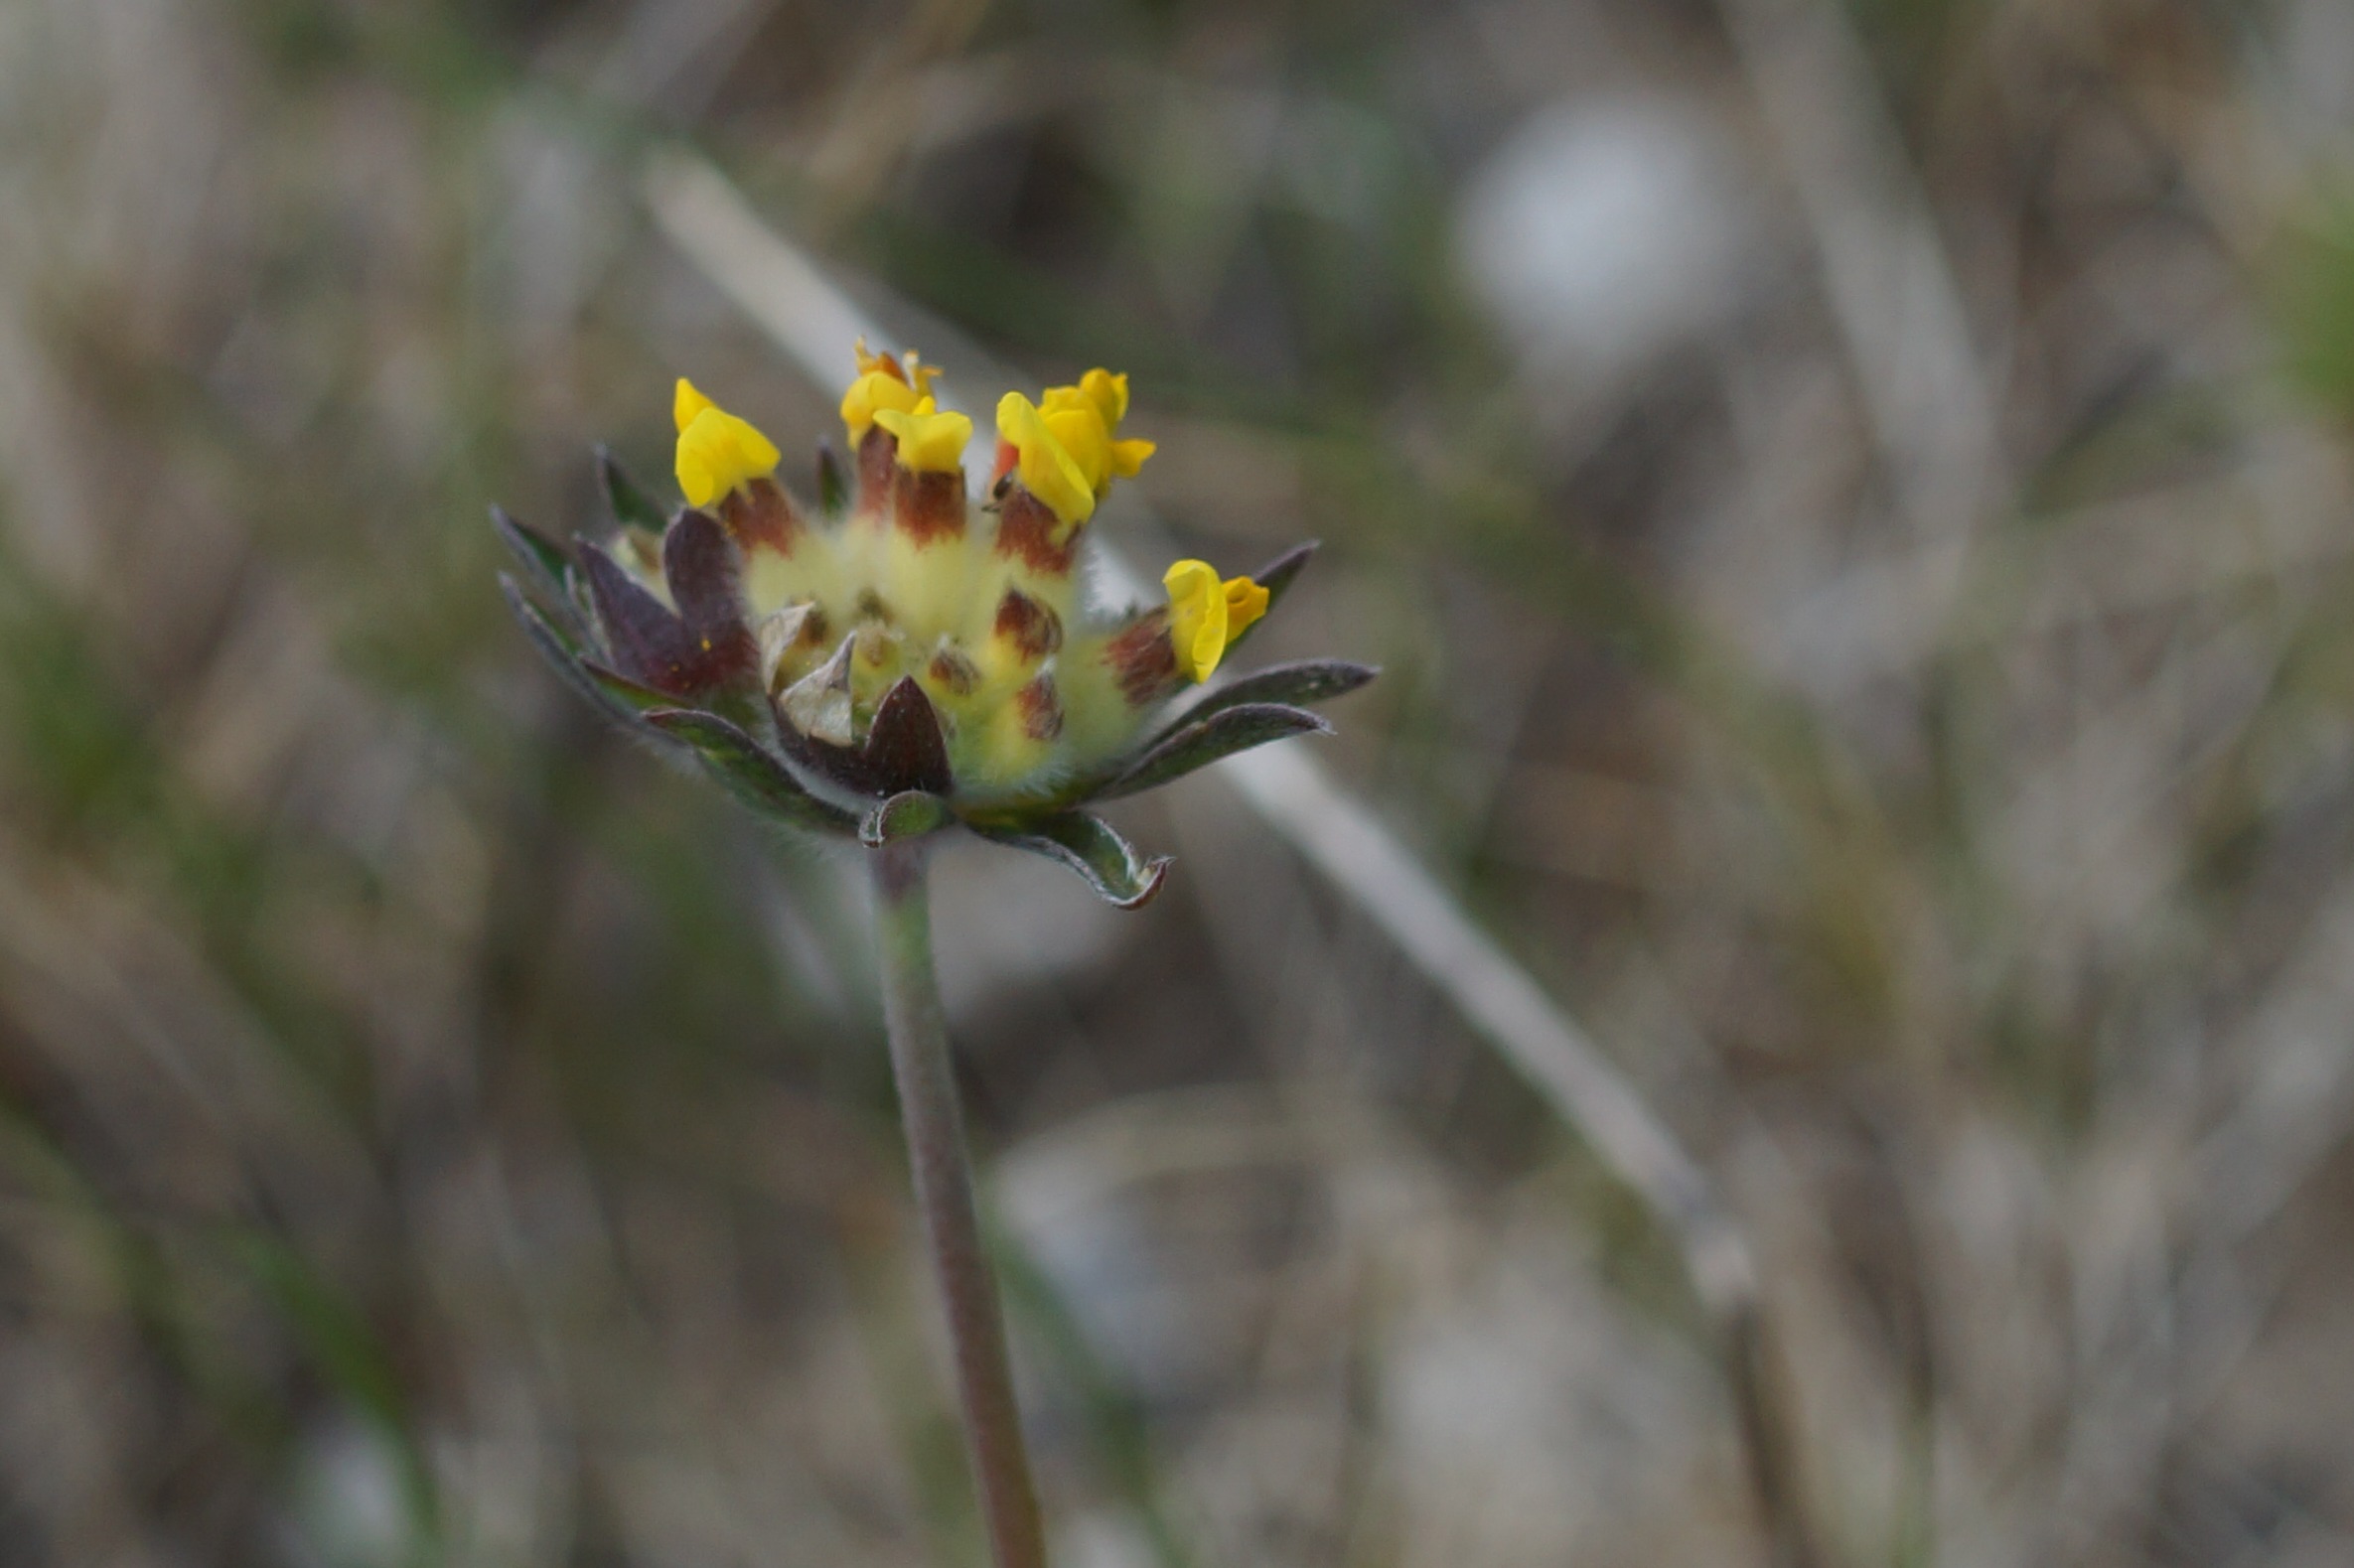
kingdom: Plantae
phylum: Tracheophyta
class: Magnoliopsida
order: Fabales
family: Fabaceae
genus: Anthyllis
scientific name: Anthyllis vulneraria
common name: Rundbælg
